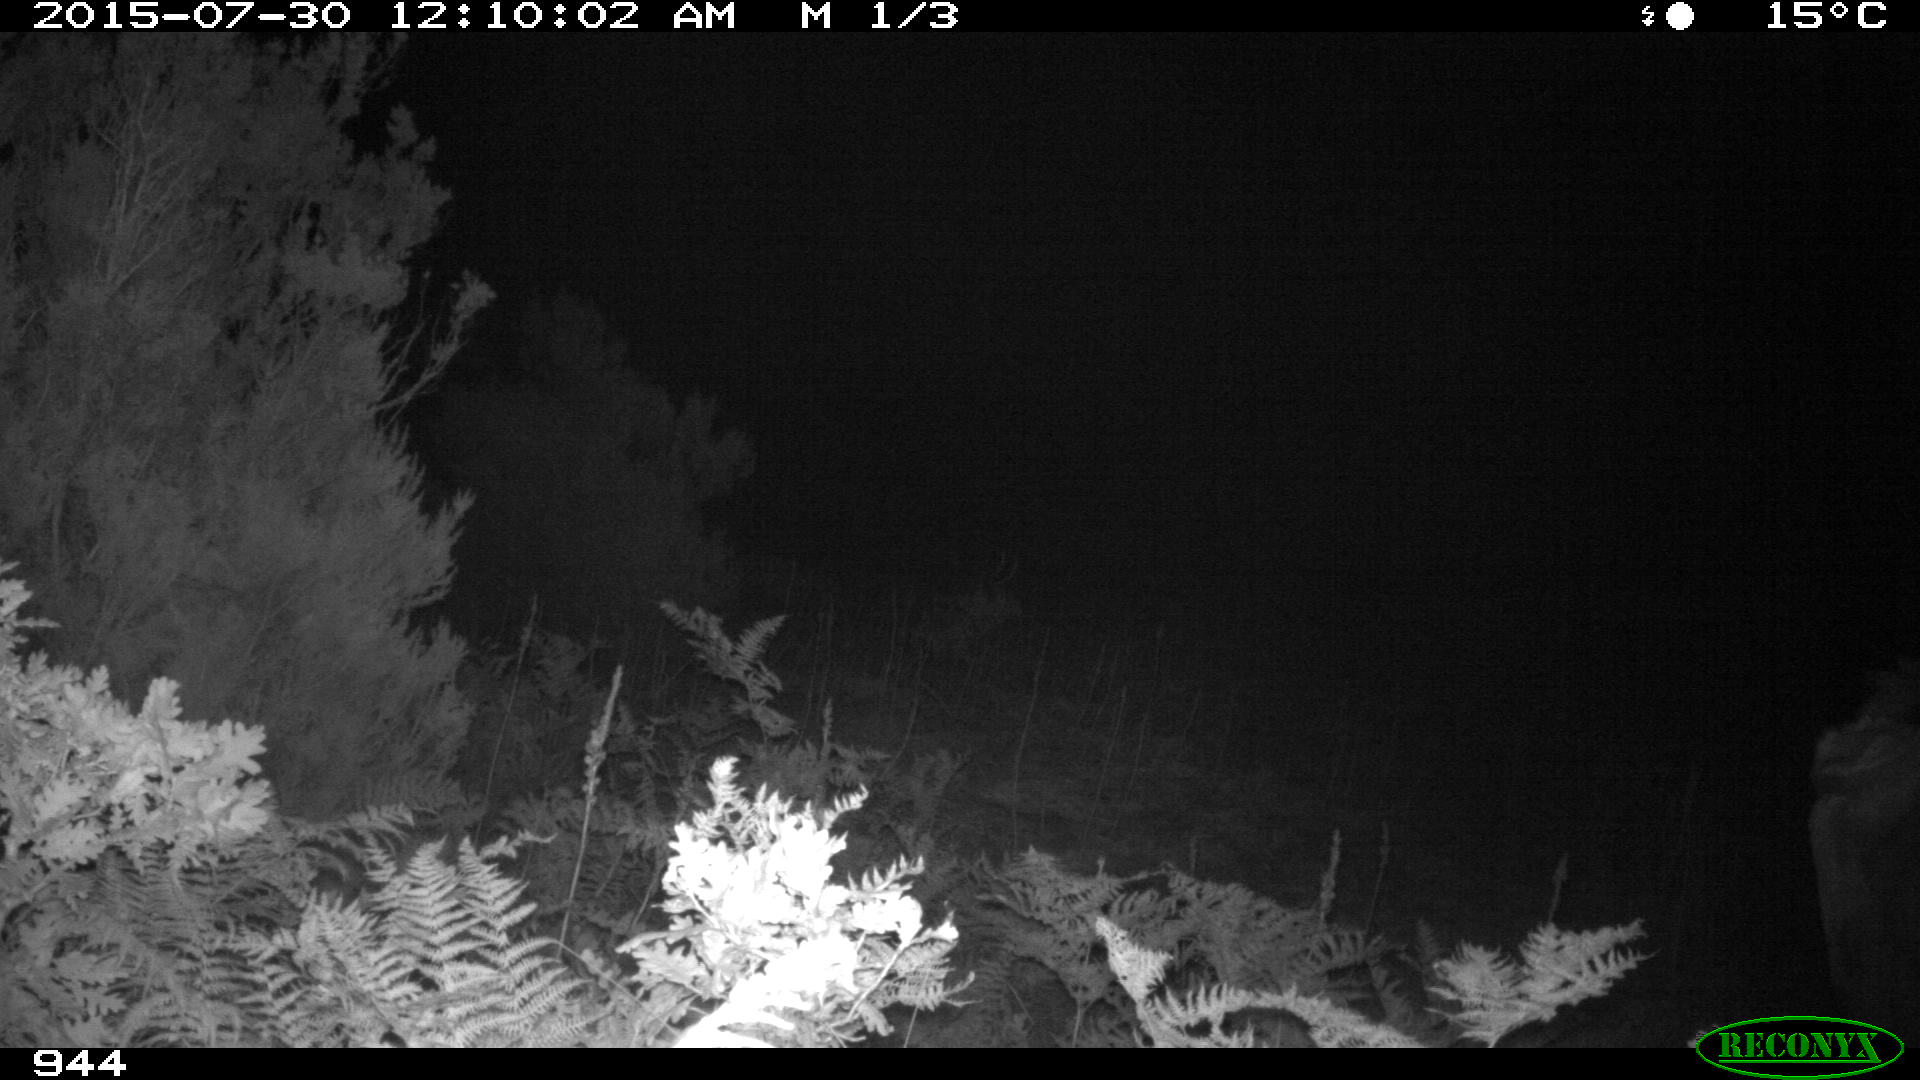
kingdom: Animalia
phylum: Chordata
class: Mammalia
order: Artiodactyla
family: Bovidae
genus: Bos
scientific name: Bos taurus
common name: Domesticated cattle
